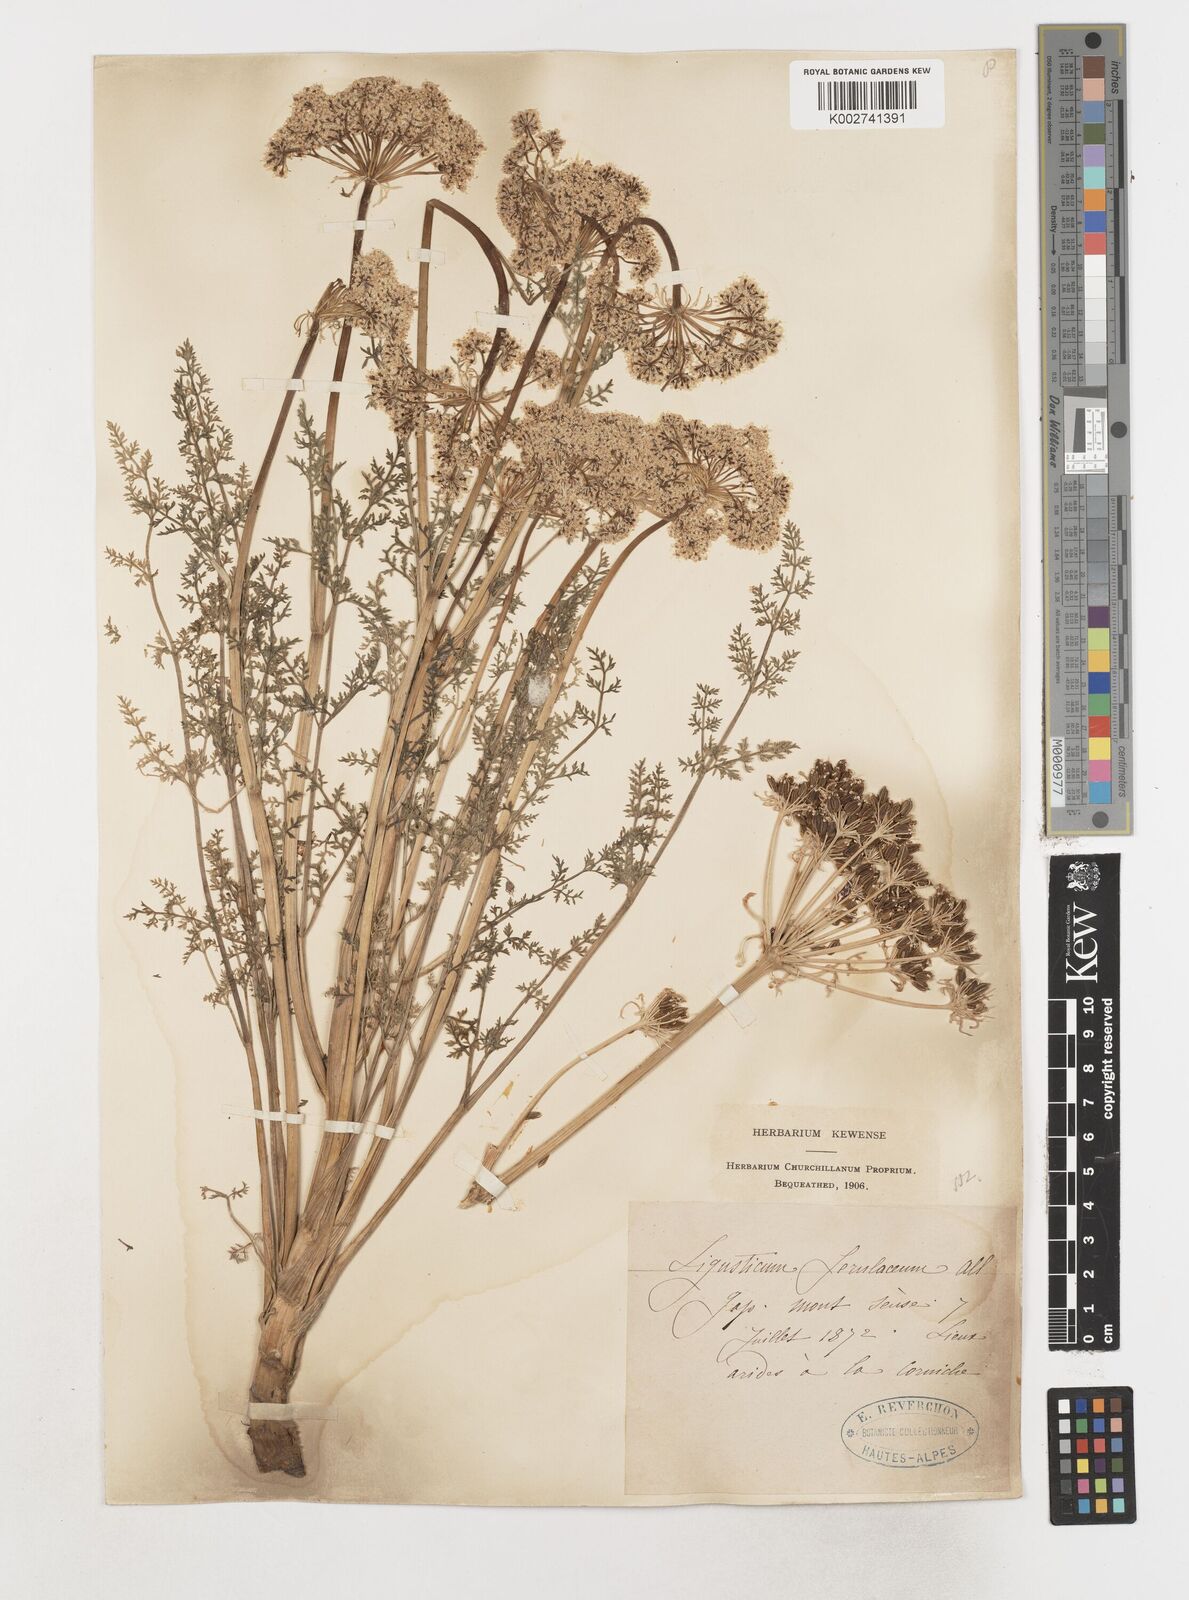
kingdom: Plantae
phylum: Tracheophyta
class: Magnoliopsida
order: Apiales
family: Apiaceae
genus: Coristospermum
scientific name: Coristospermum ferulaceum
